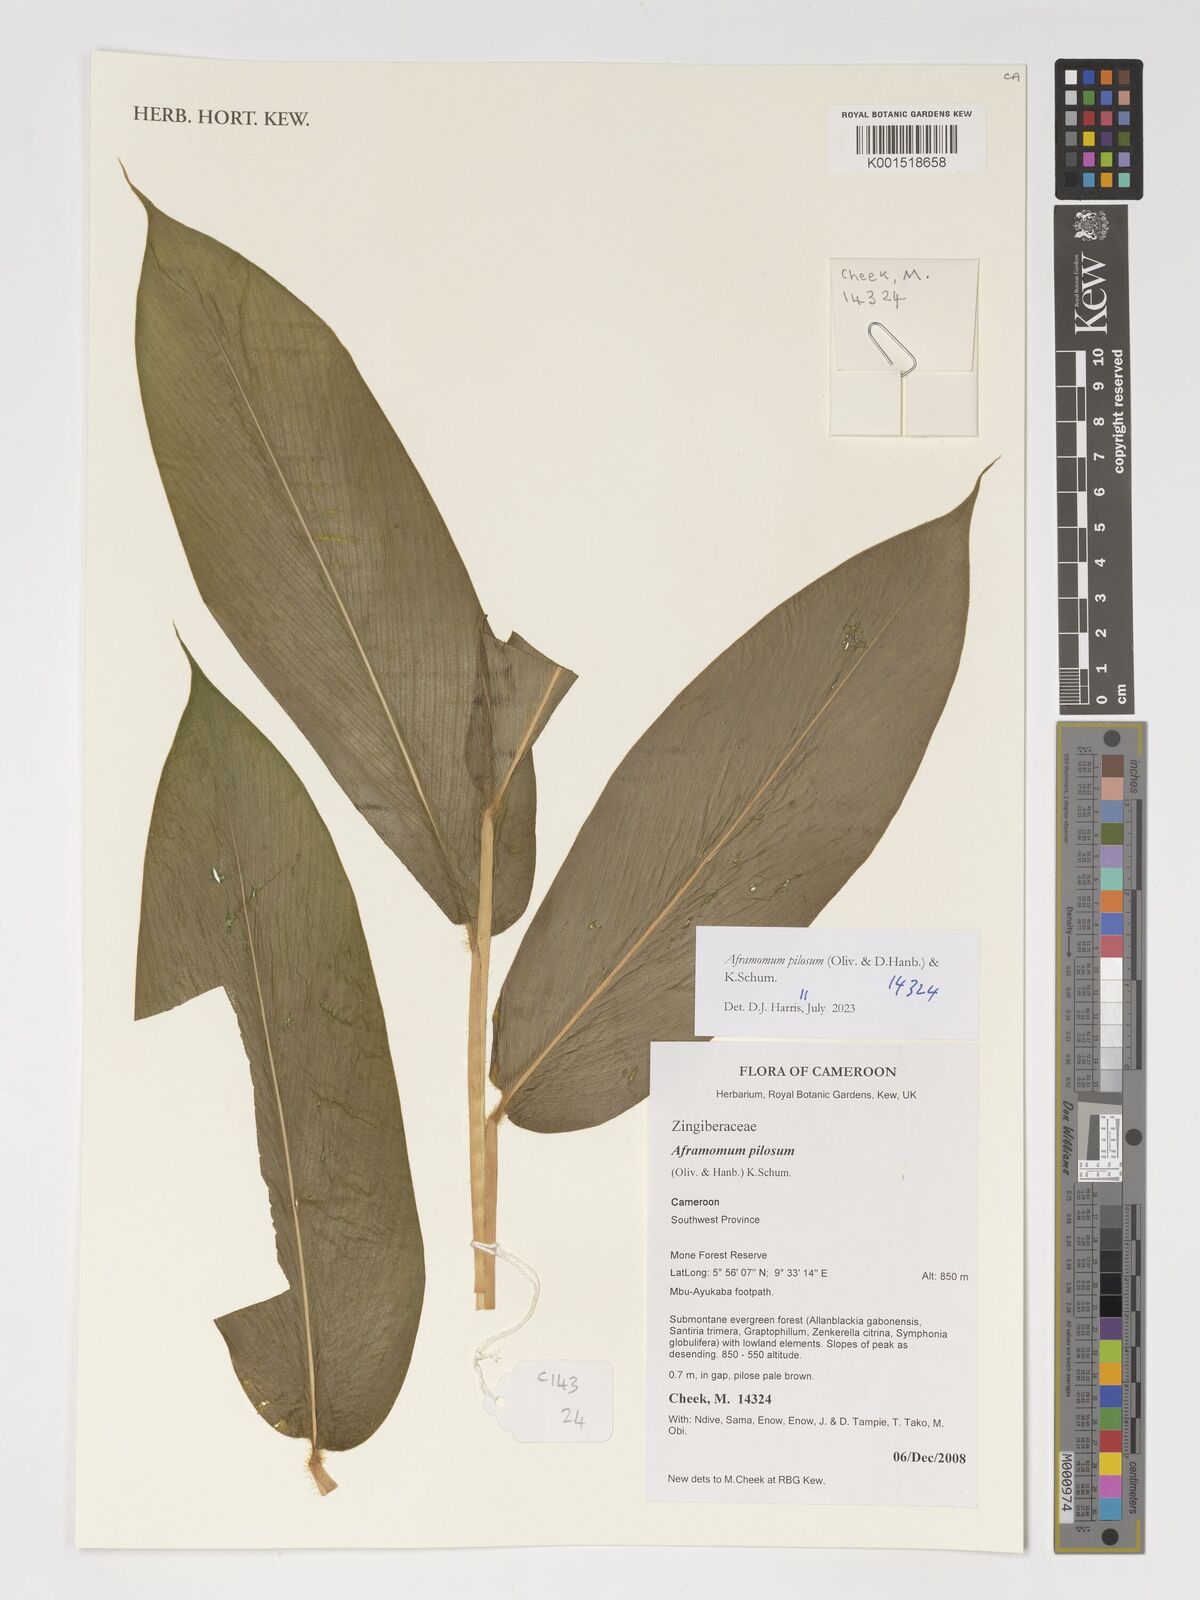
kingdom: Plantae
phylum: Tracheophyta
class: Liliopsida
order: Zingiberales
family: Zingiberaceae
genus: Aframomum
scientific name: Aframomum pilosum
